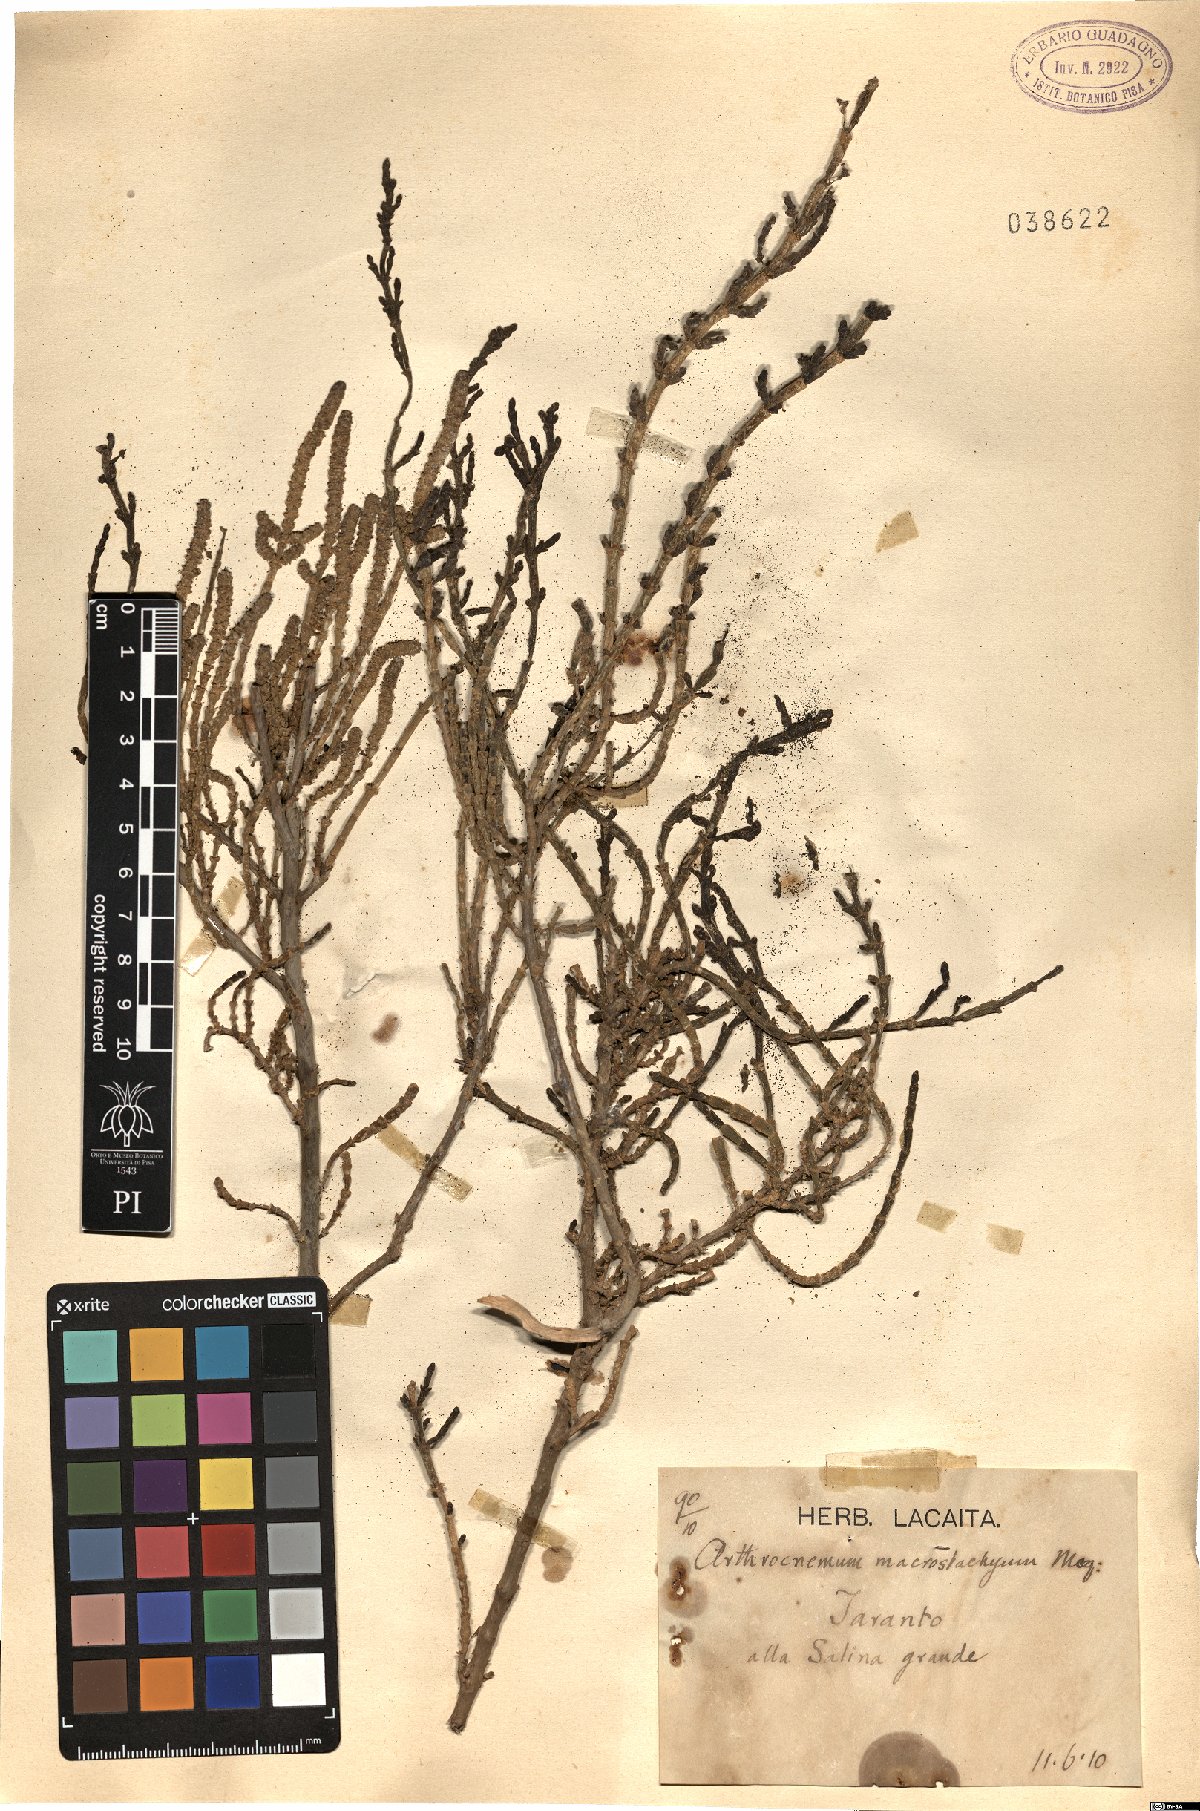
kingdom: Plantae
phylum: Tracheophyta
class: Magnoliopsida
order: Caryophyllales
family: Amaranthaceae
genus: Arthrocaulon
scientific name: Arthrocaulon macrostachyum
